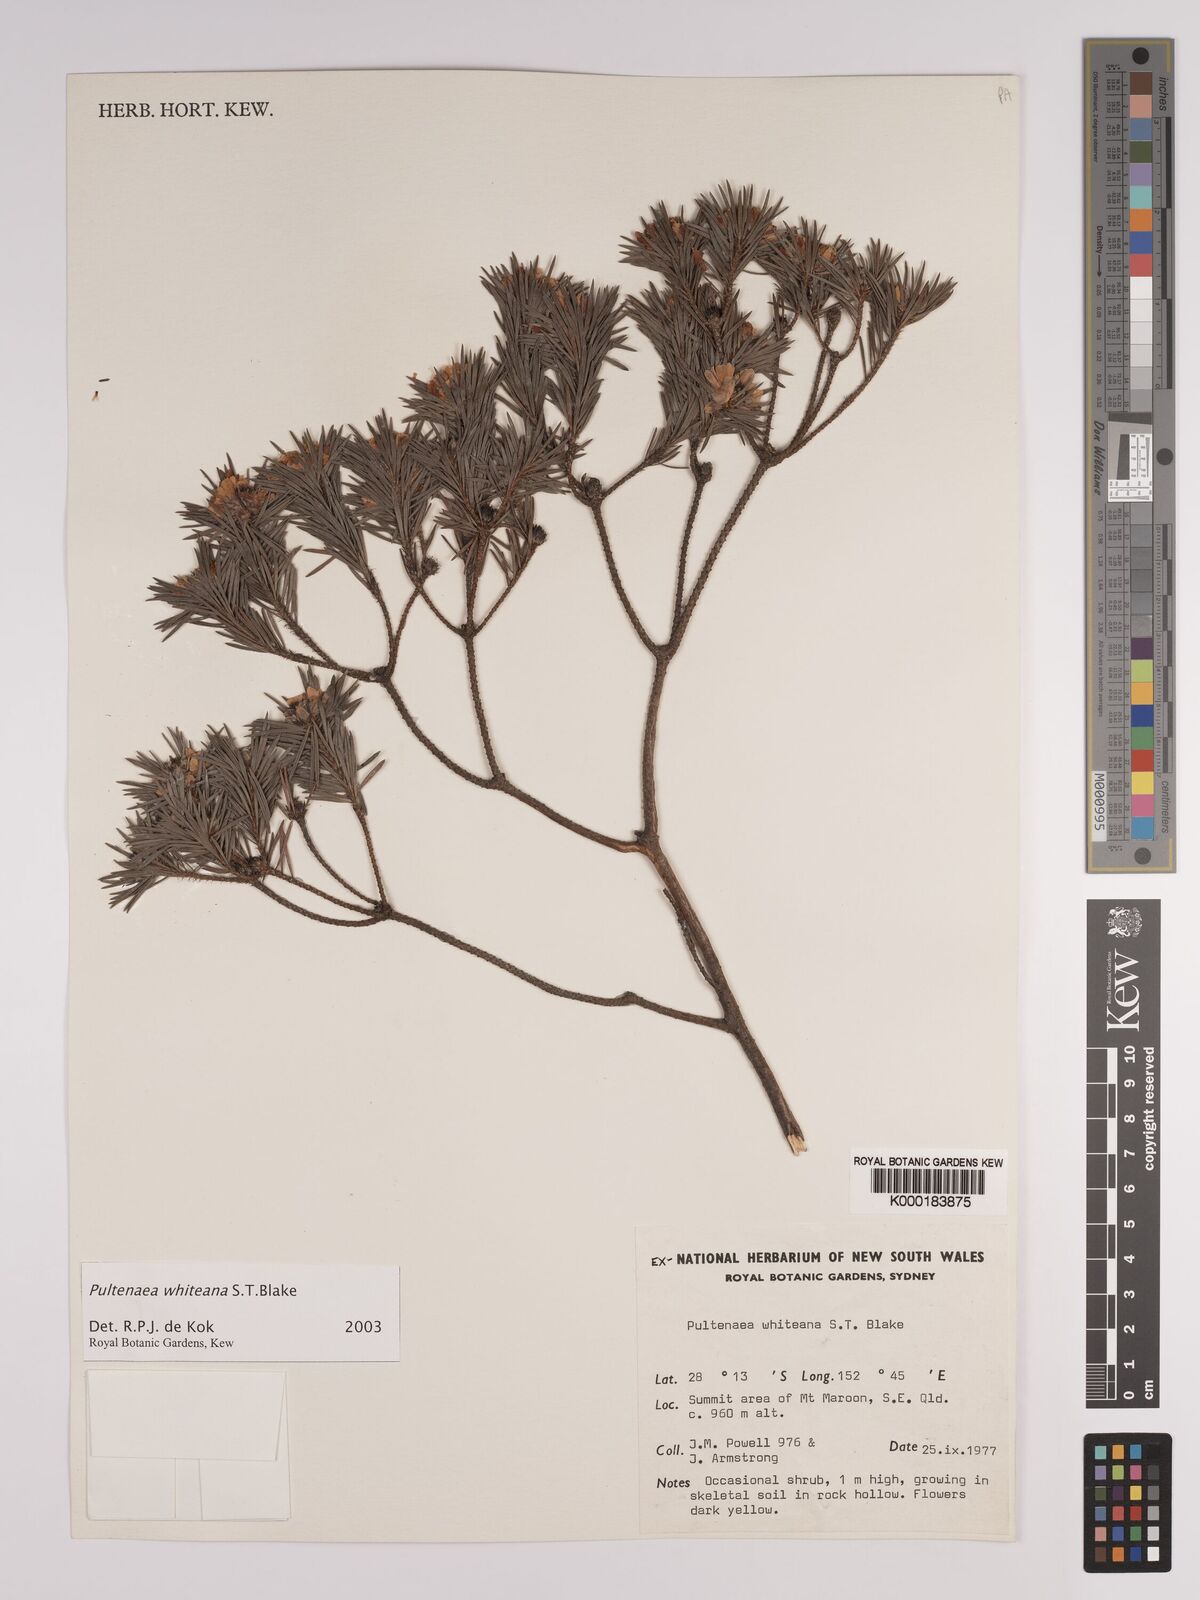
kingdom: Plantae
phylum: Tracheophyta
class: Magnoliopsida
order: Fabales
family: Fabaceae
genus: Pultenaea
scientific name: Pultenaea whiteana
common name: Mount barney bush pea
